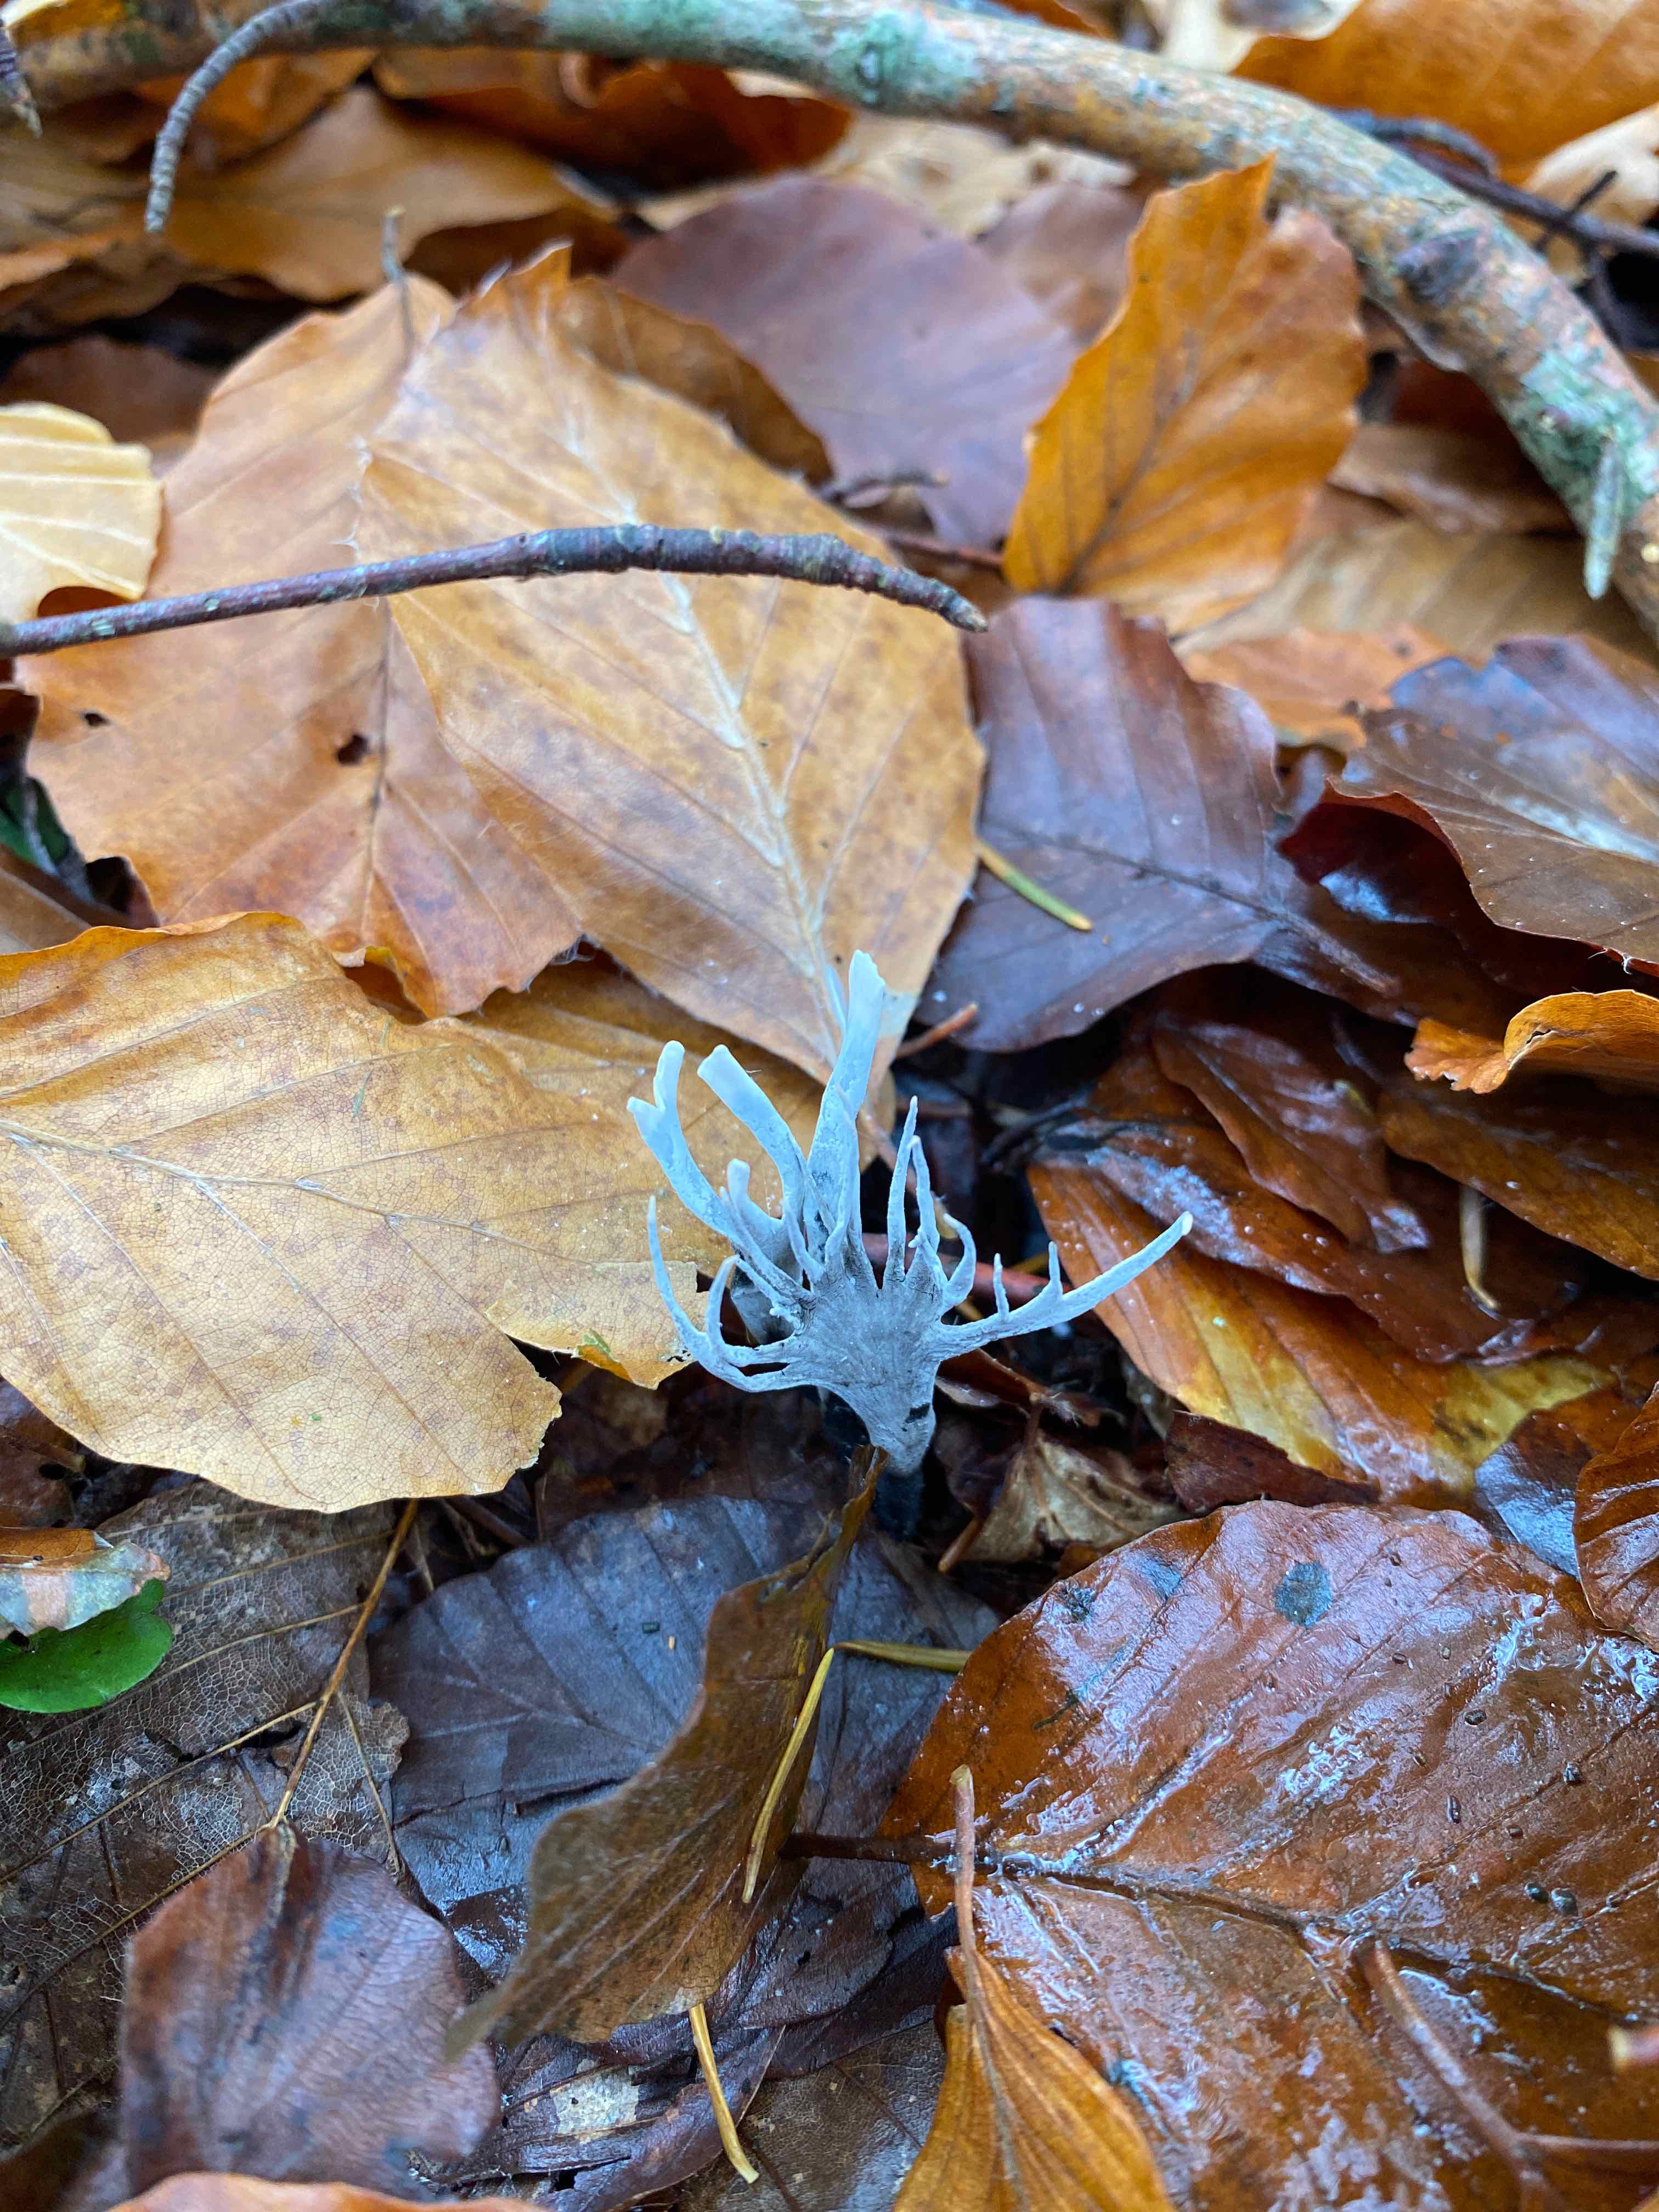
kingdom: Fungi
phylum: Ascomycota
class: Sordariomycetes
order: Xylariales
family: Xylariaceae
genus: Xylaria
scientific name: Xylaria hypoxylon
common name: grenet stødsvamp
